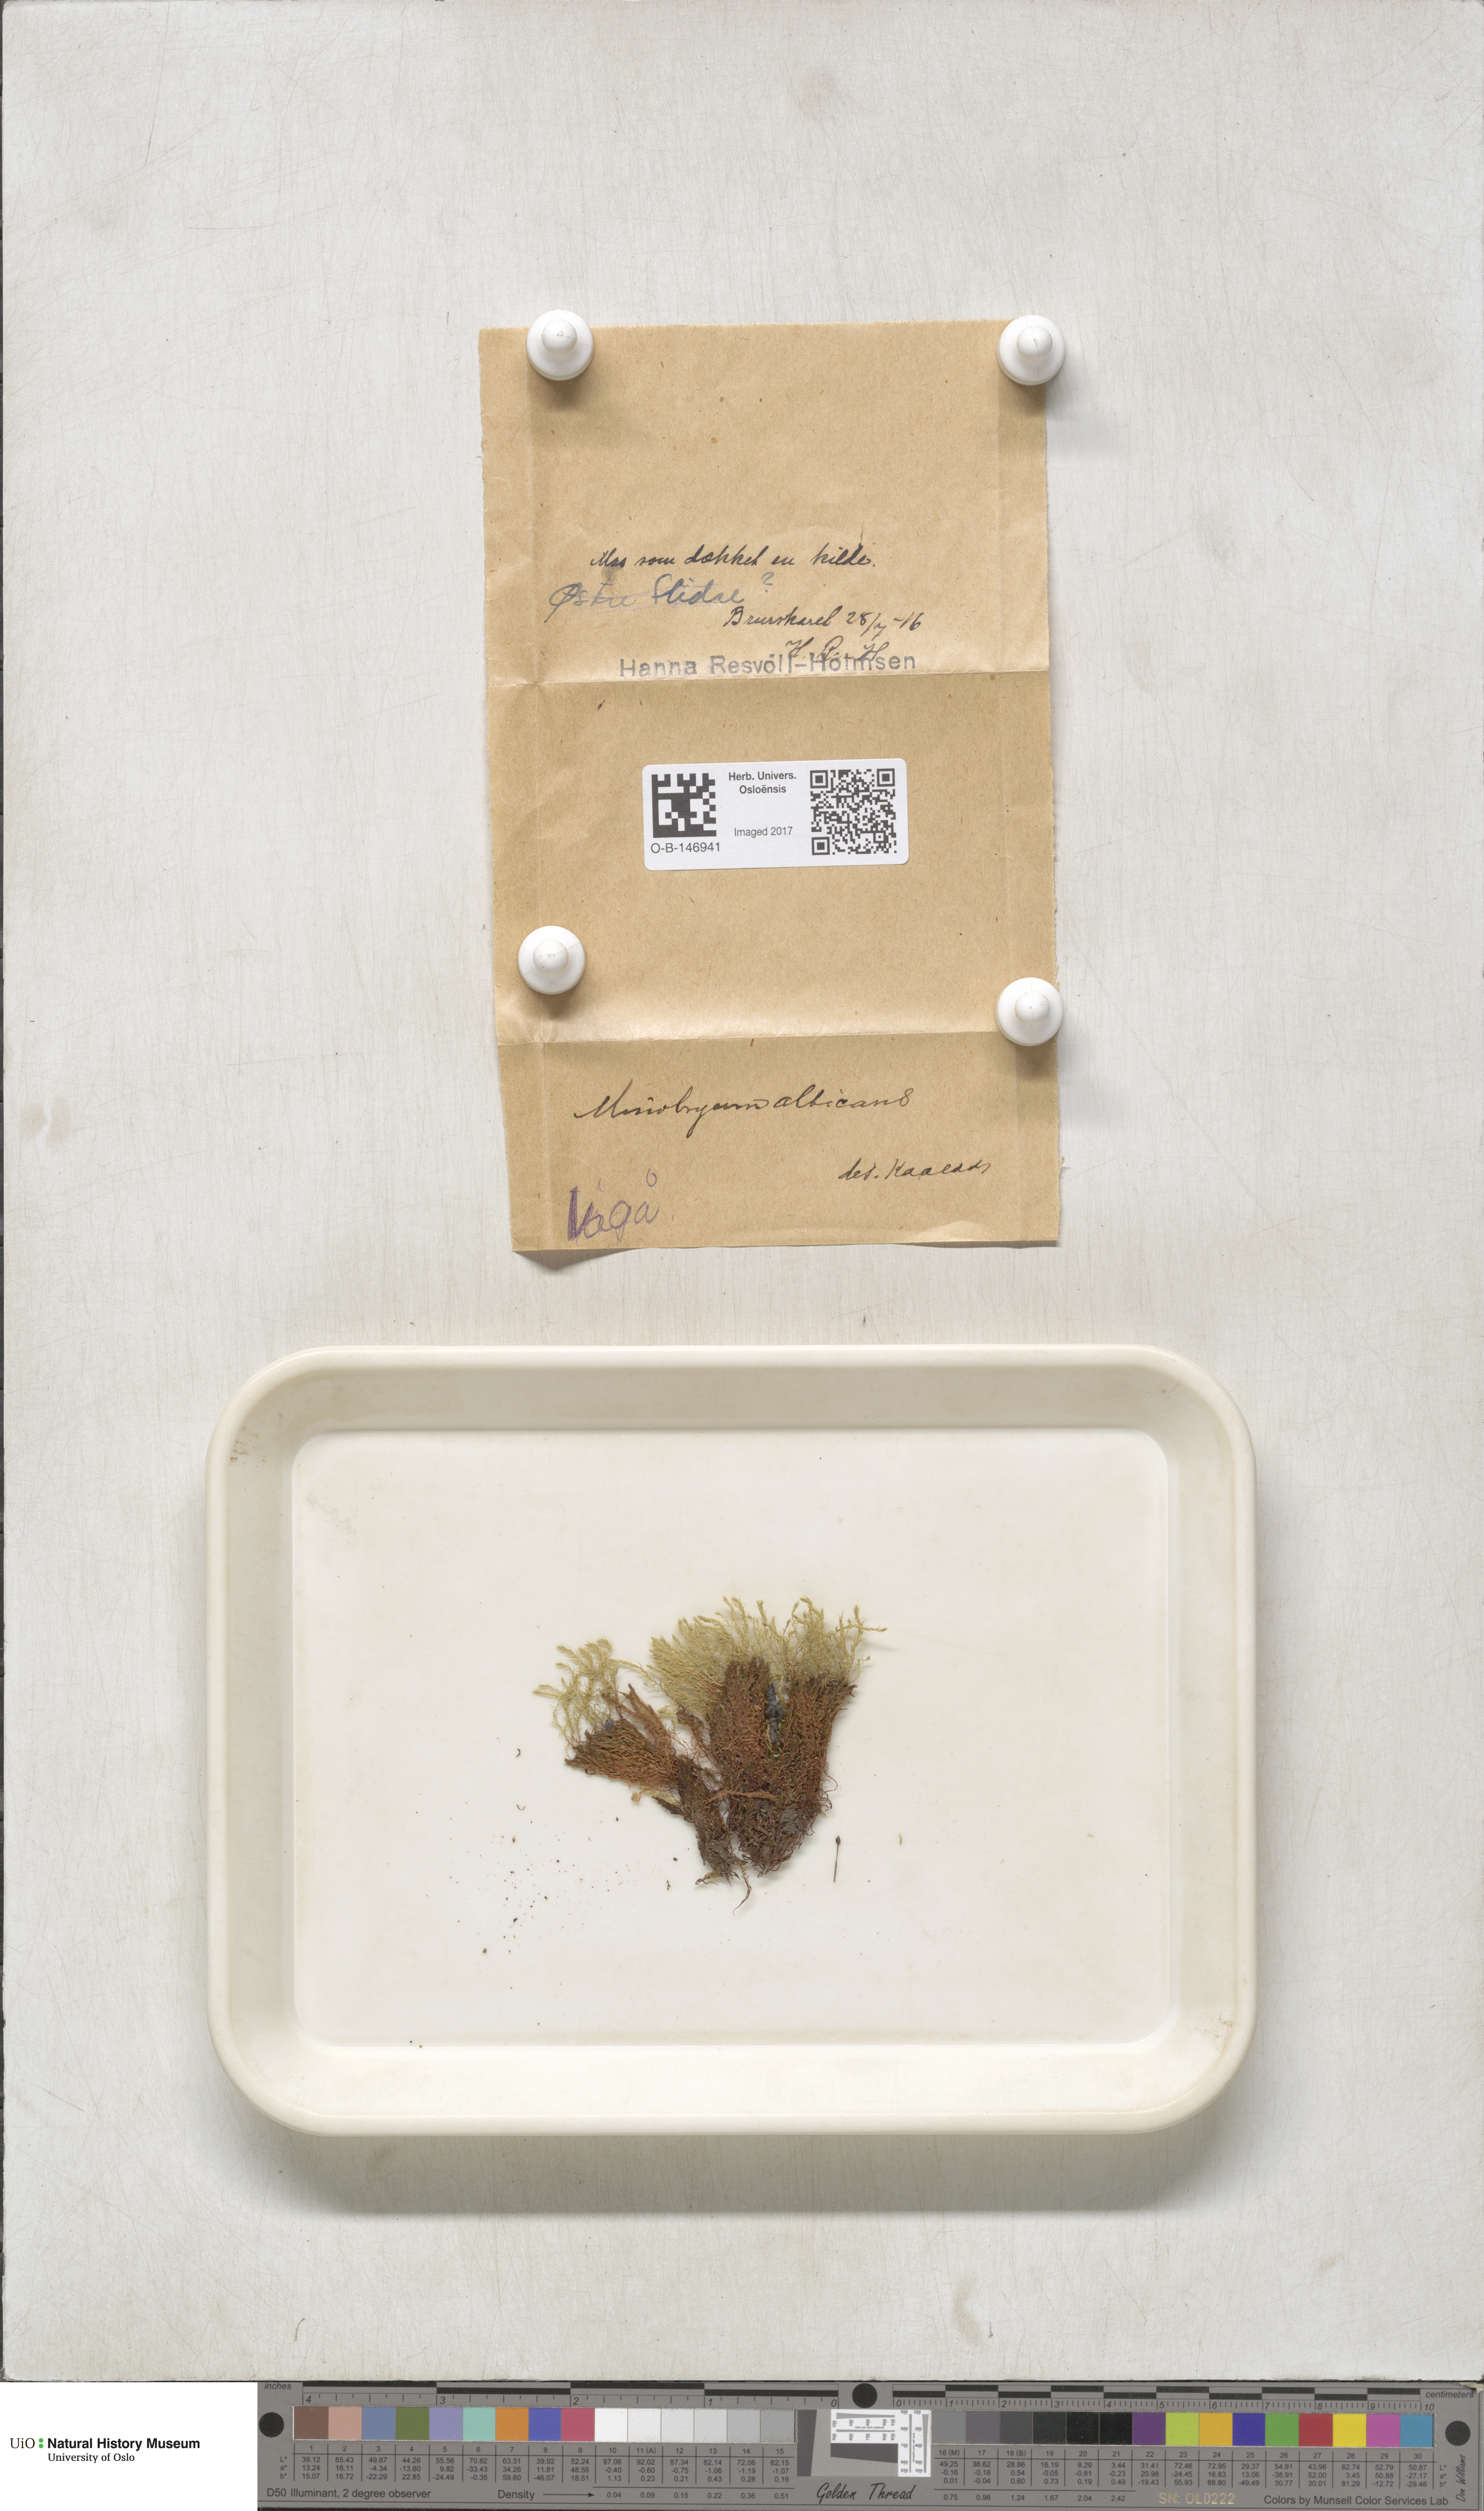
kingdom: Plantae
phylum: Bryophyta
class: Bryopsida
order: Bryales
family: Mniaceae
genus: Pohlia
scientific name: Pohlia wahlenbergii
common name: Wahlenberg's nodding moss
